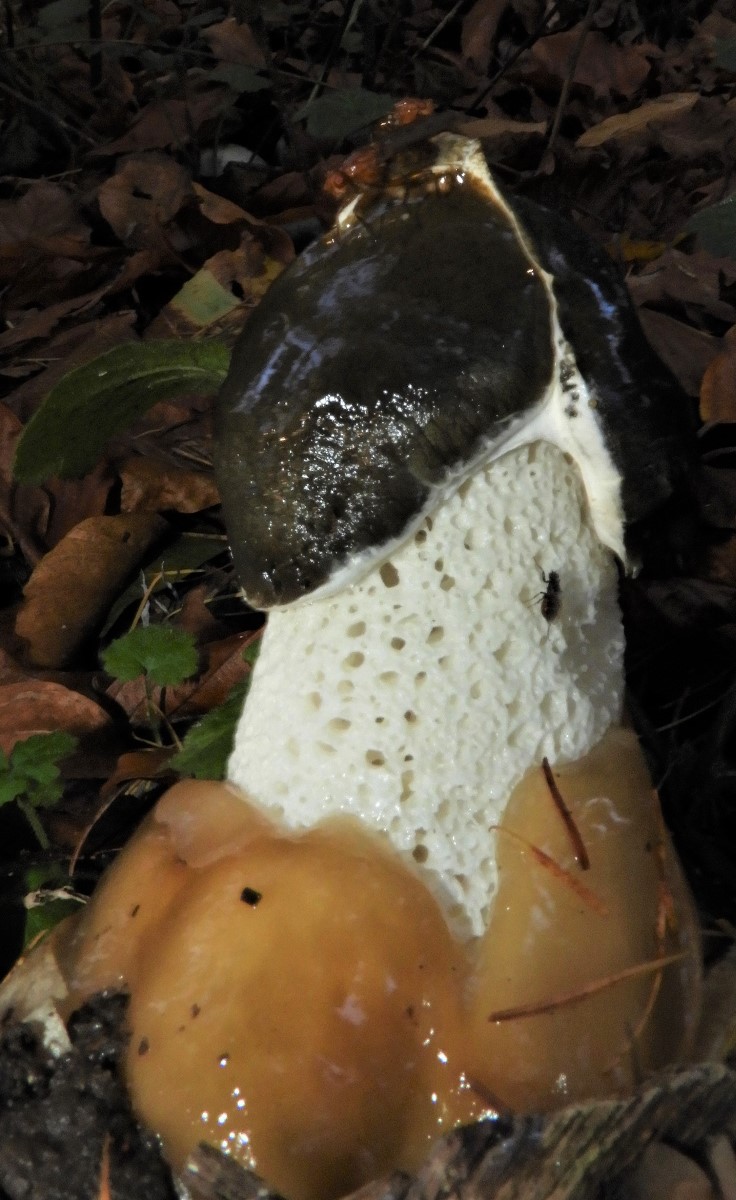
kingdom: Fungi
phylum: Basidiomycota
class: Agaricomycetes
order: Phallales
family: Phallaceae
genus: Phallus
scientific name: Phallus impudicus
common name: almindelig stinksvamp
